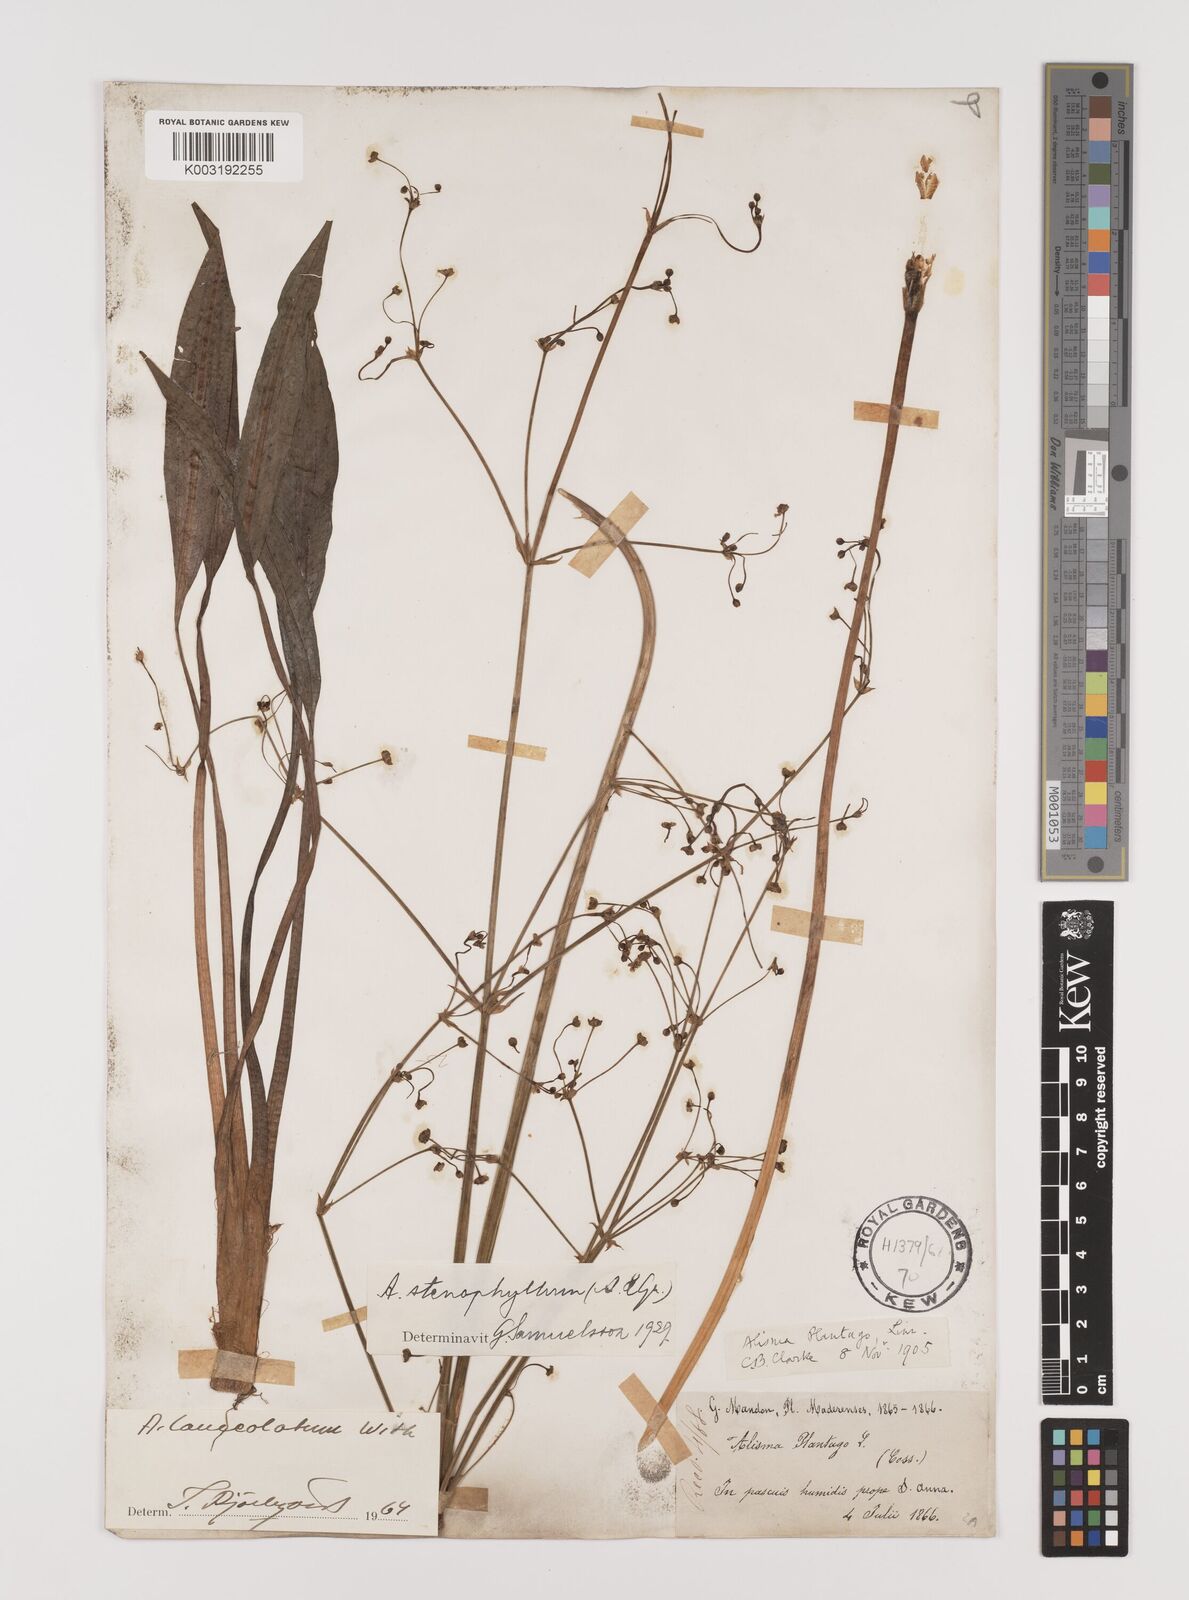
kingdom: Plantae
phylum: Tracheophyta
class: Liliopsida
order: Alismatales
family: Alismataceae
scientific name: Alismataceae
